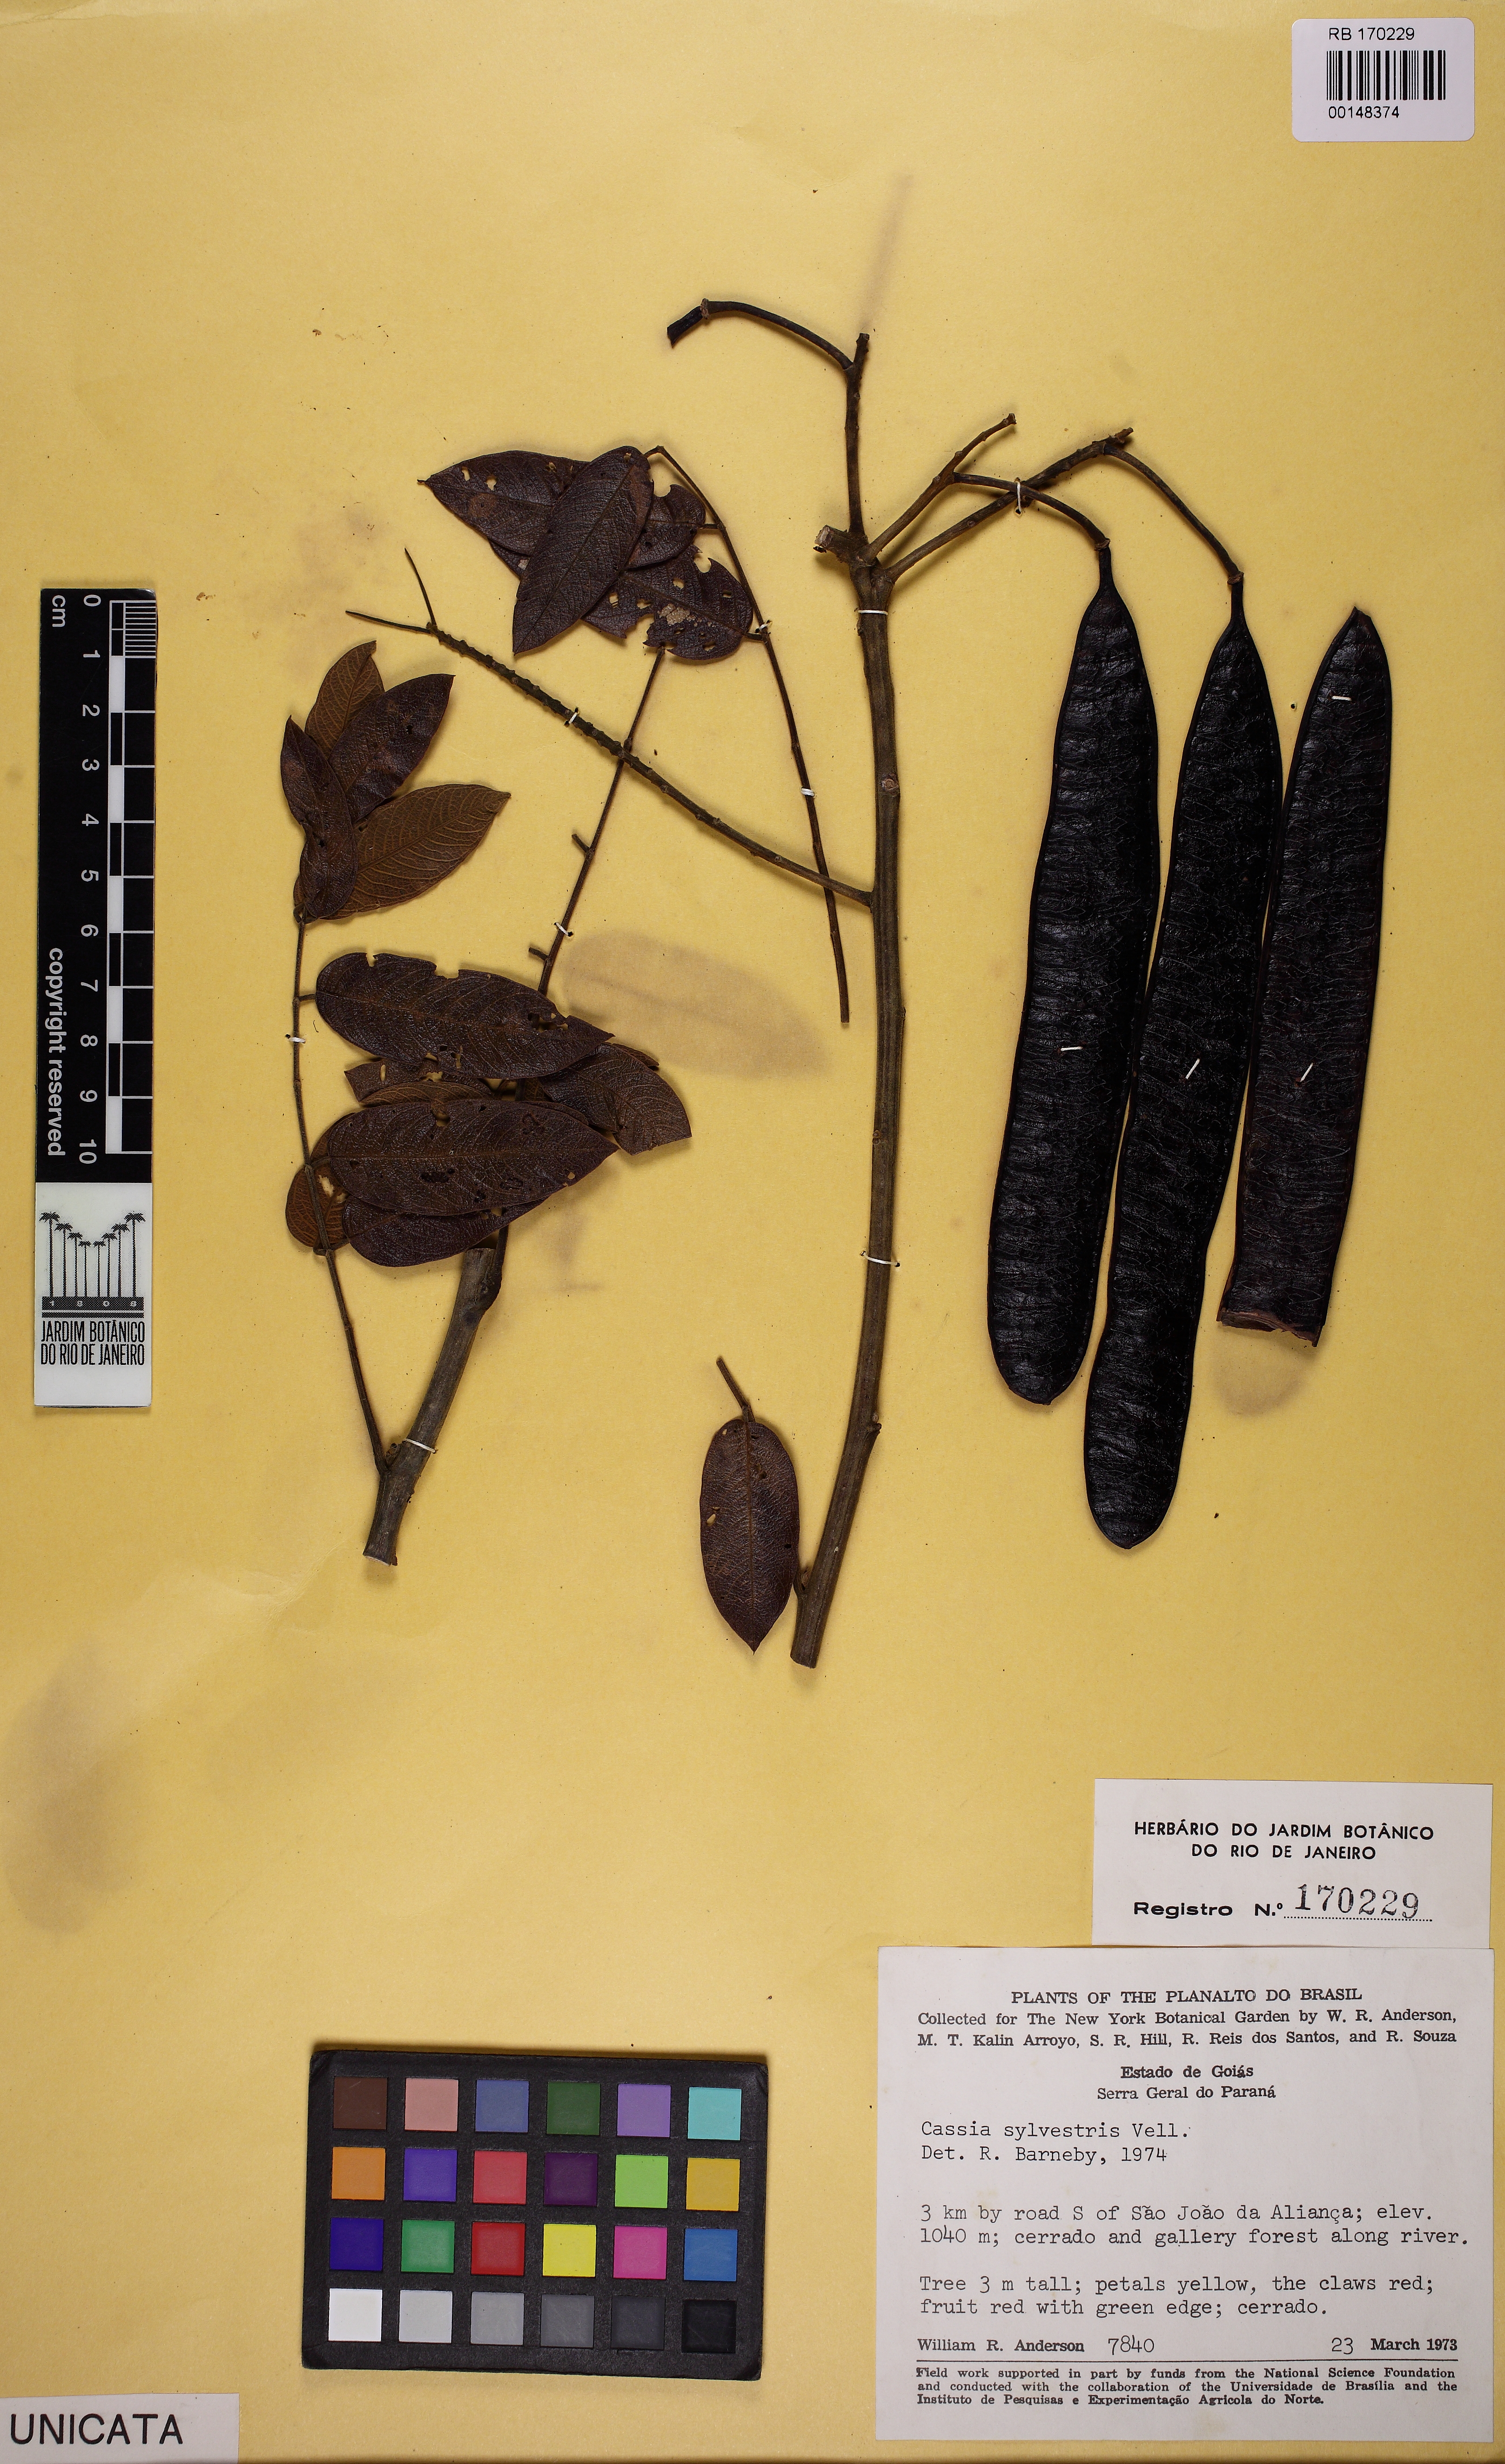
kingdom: Plantae
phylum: Tracheophyta
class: Magnoliopsida
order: Fabales
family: Fabaceae
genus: Senna
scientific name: Senna silvestris
